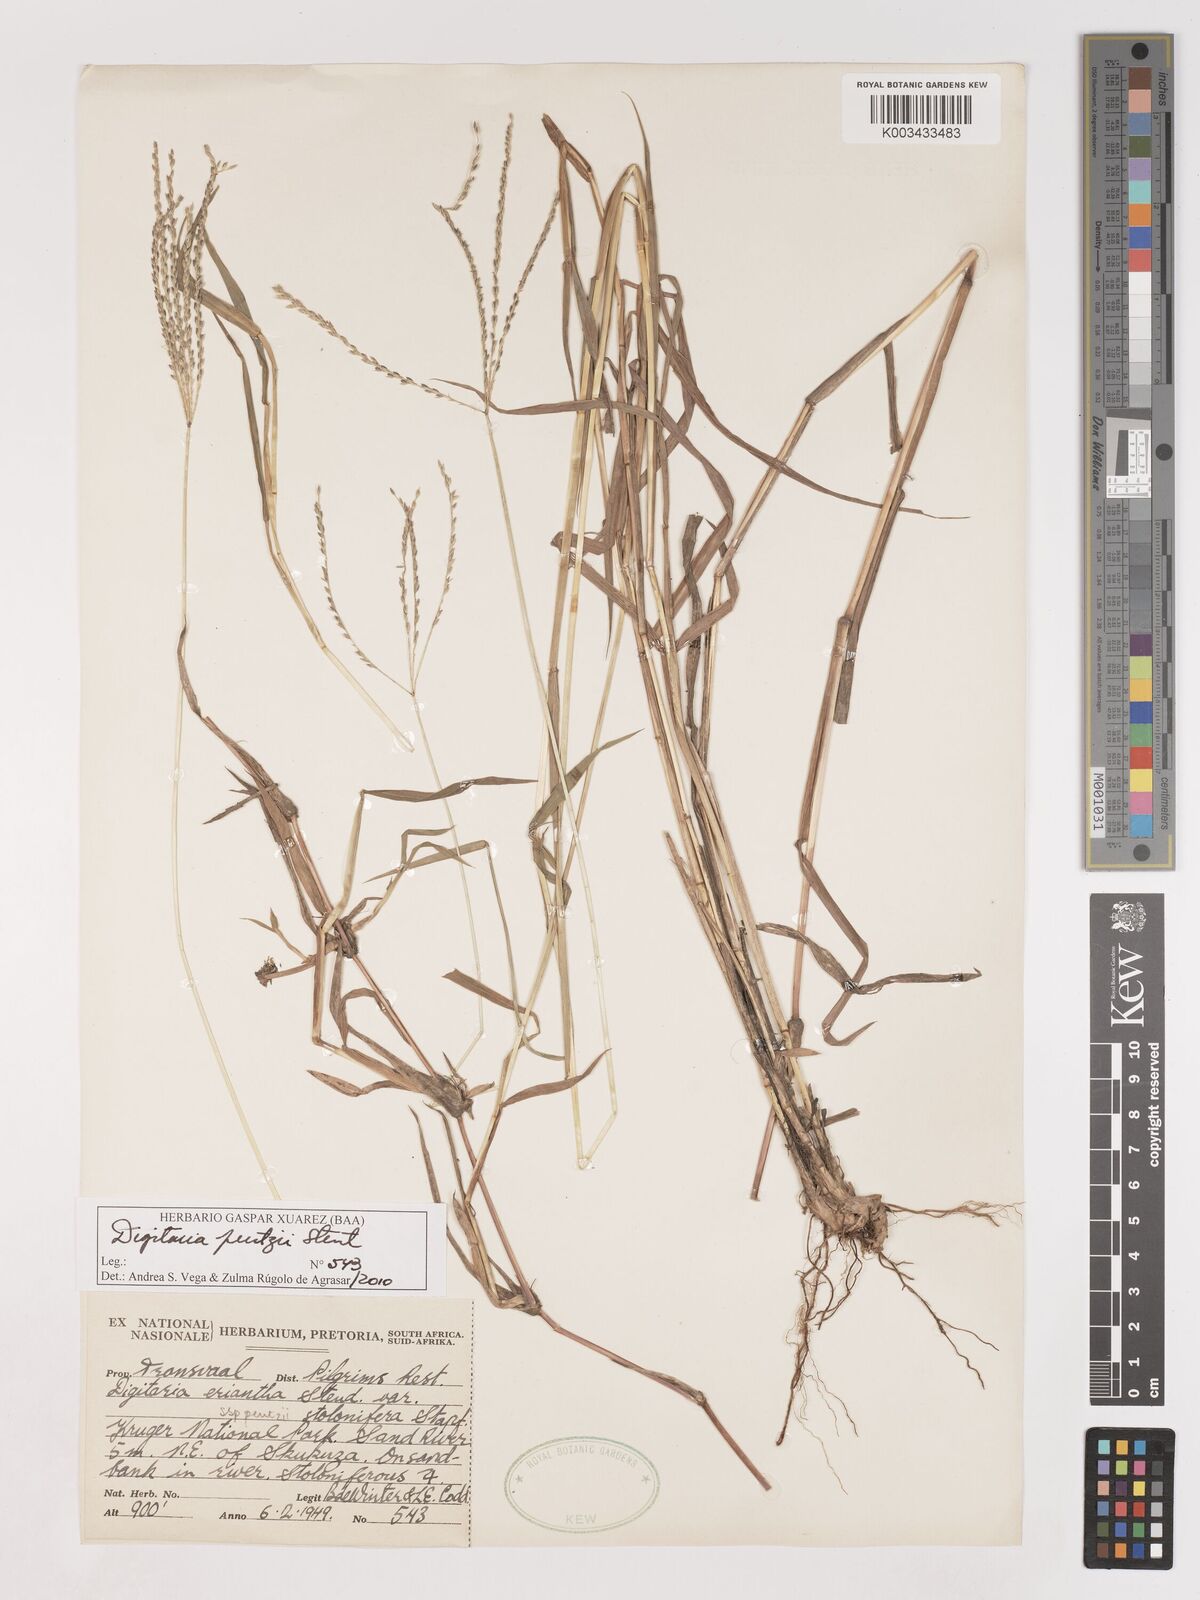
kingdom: Plantae
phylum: Tracheophyta
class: Liliopsida
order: Poales
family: Poaceae
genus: Digitaria
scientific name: Digitaria eriantha
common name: Digitgrass
